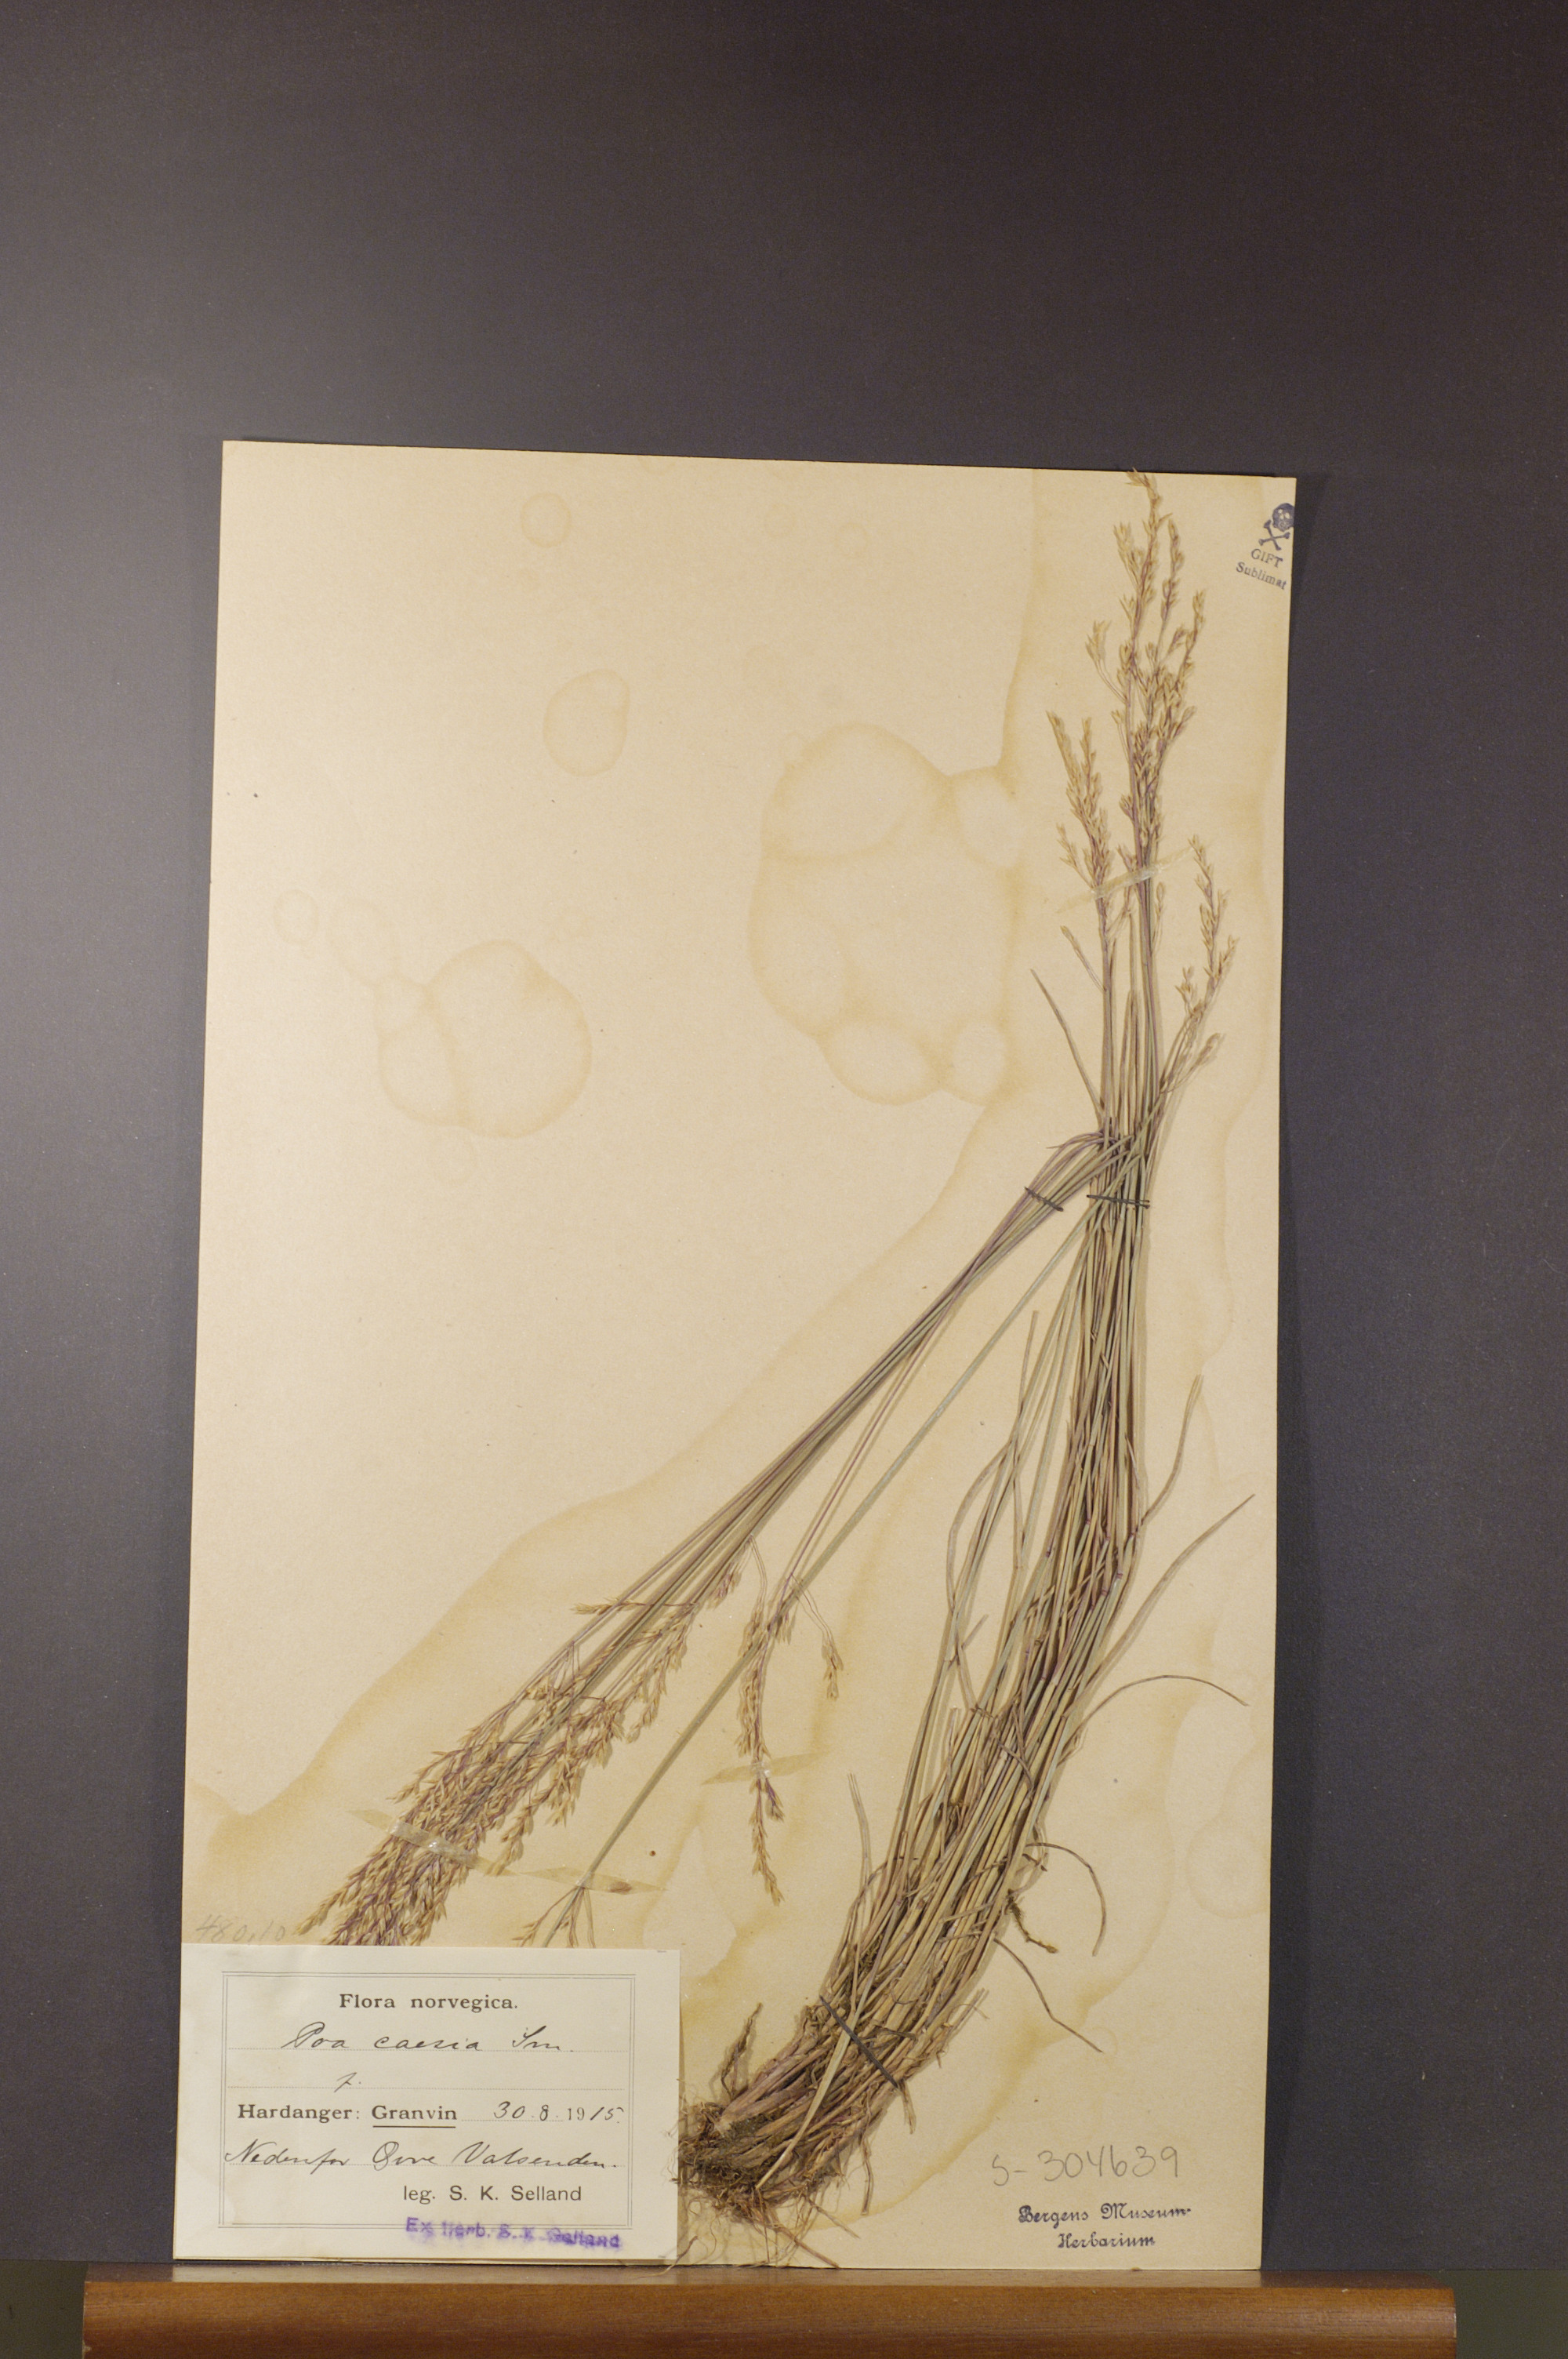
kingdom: Plantae
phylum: Tracheophyta
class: Liliopsida
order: Poales
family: Poaceae
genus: Poa
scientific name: Poa glauca
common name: Glaucous bluegrass
